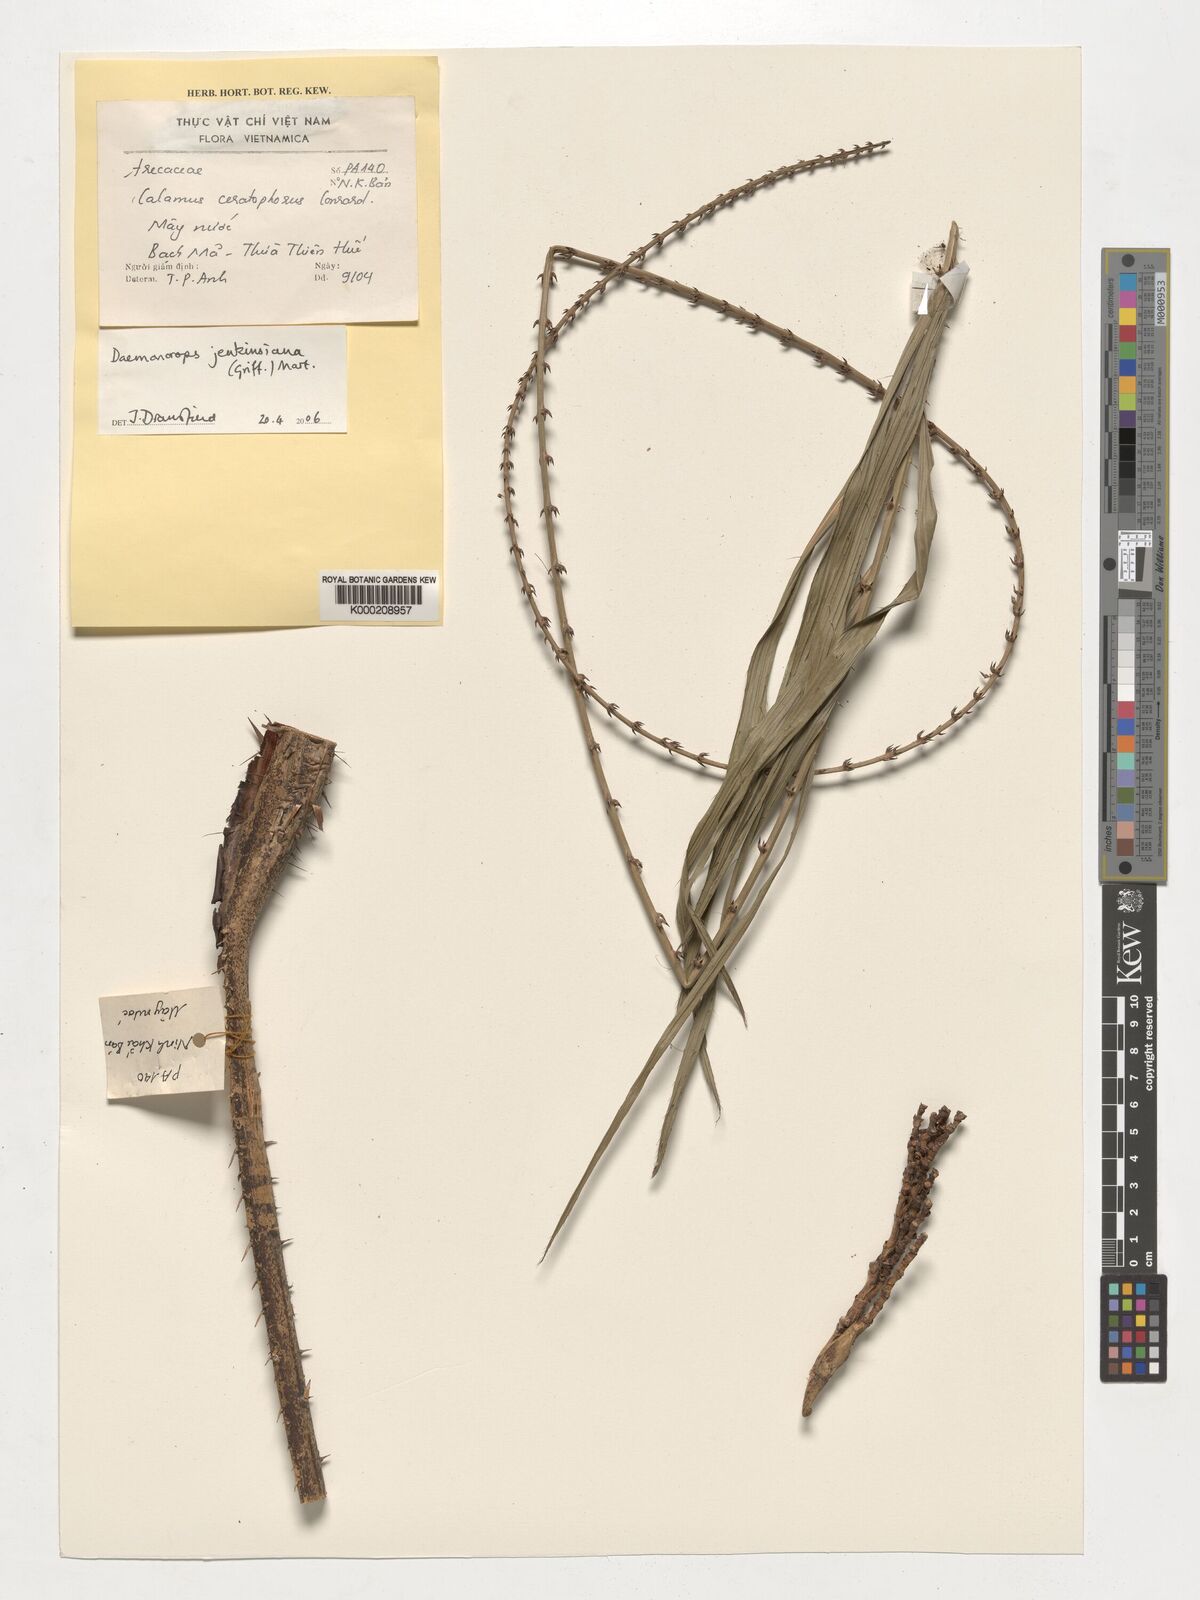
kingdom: Plantae
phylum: Tracheophyta
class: Liliopsida
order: Arecales
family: Arecaceae
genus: Calamus
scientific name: Calamus melanochaetes
